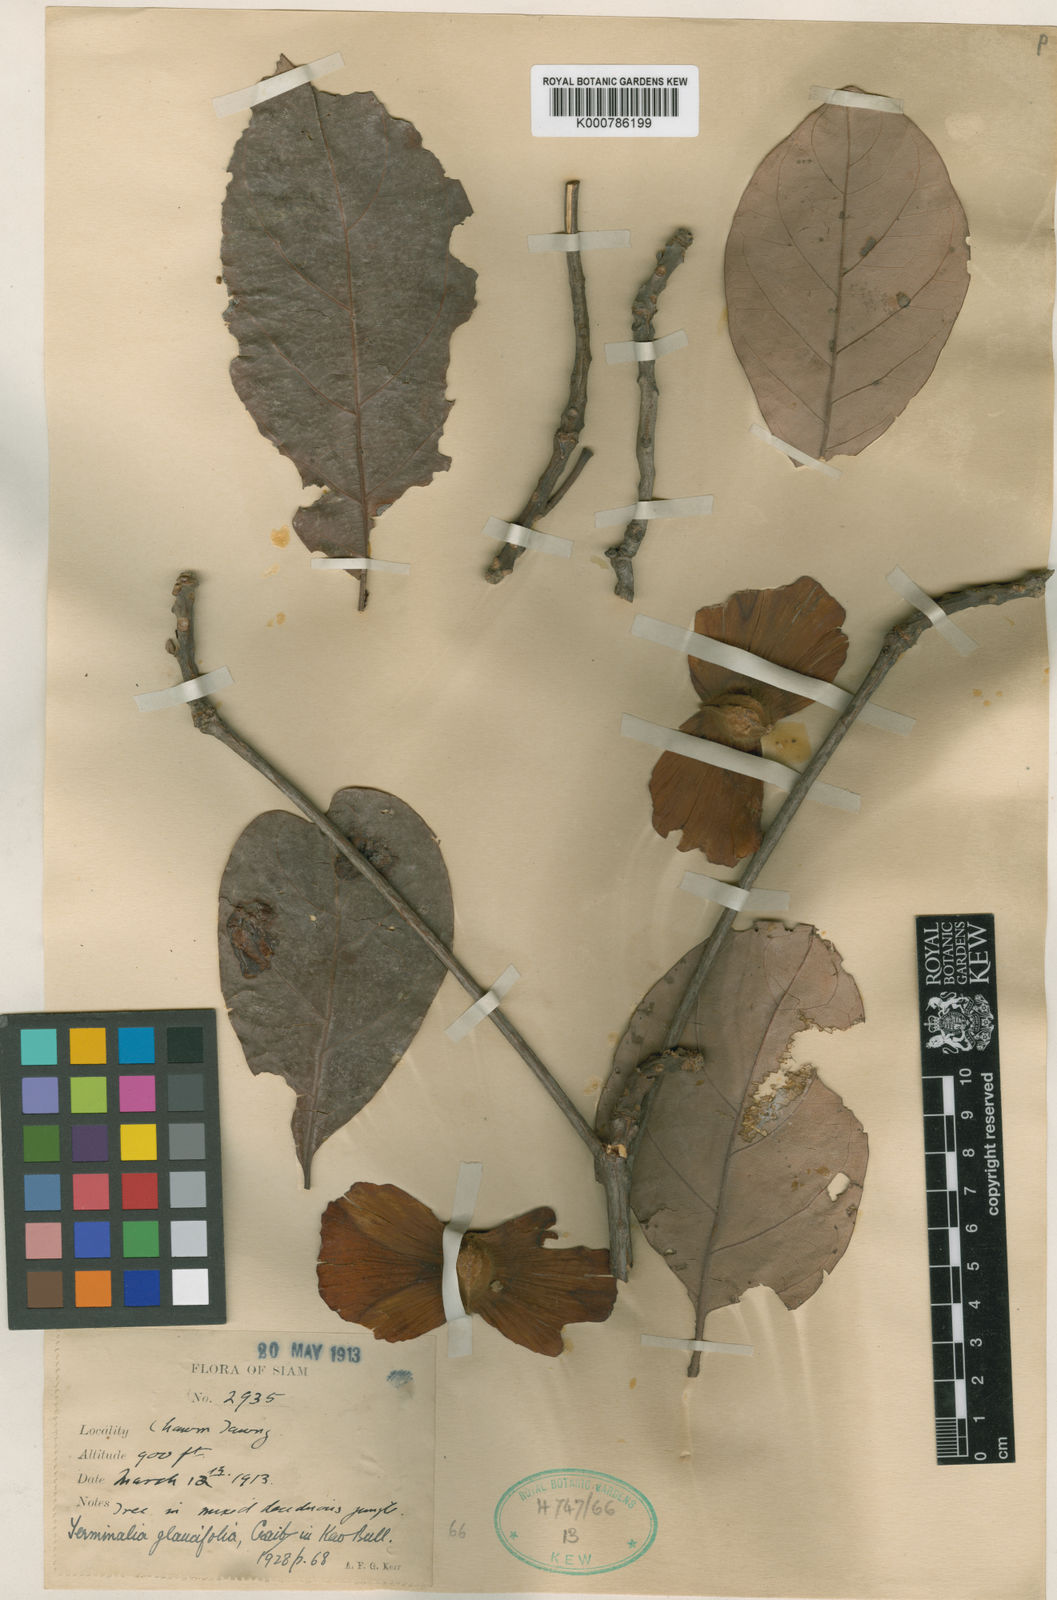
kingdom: Plantae
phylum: Tracheophyta
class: Magnoliopsida
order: Myrtales
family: Combretaceae
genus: Terminalia
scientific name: Terminalia glaucifolia
